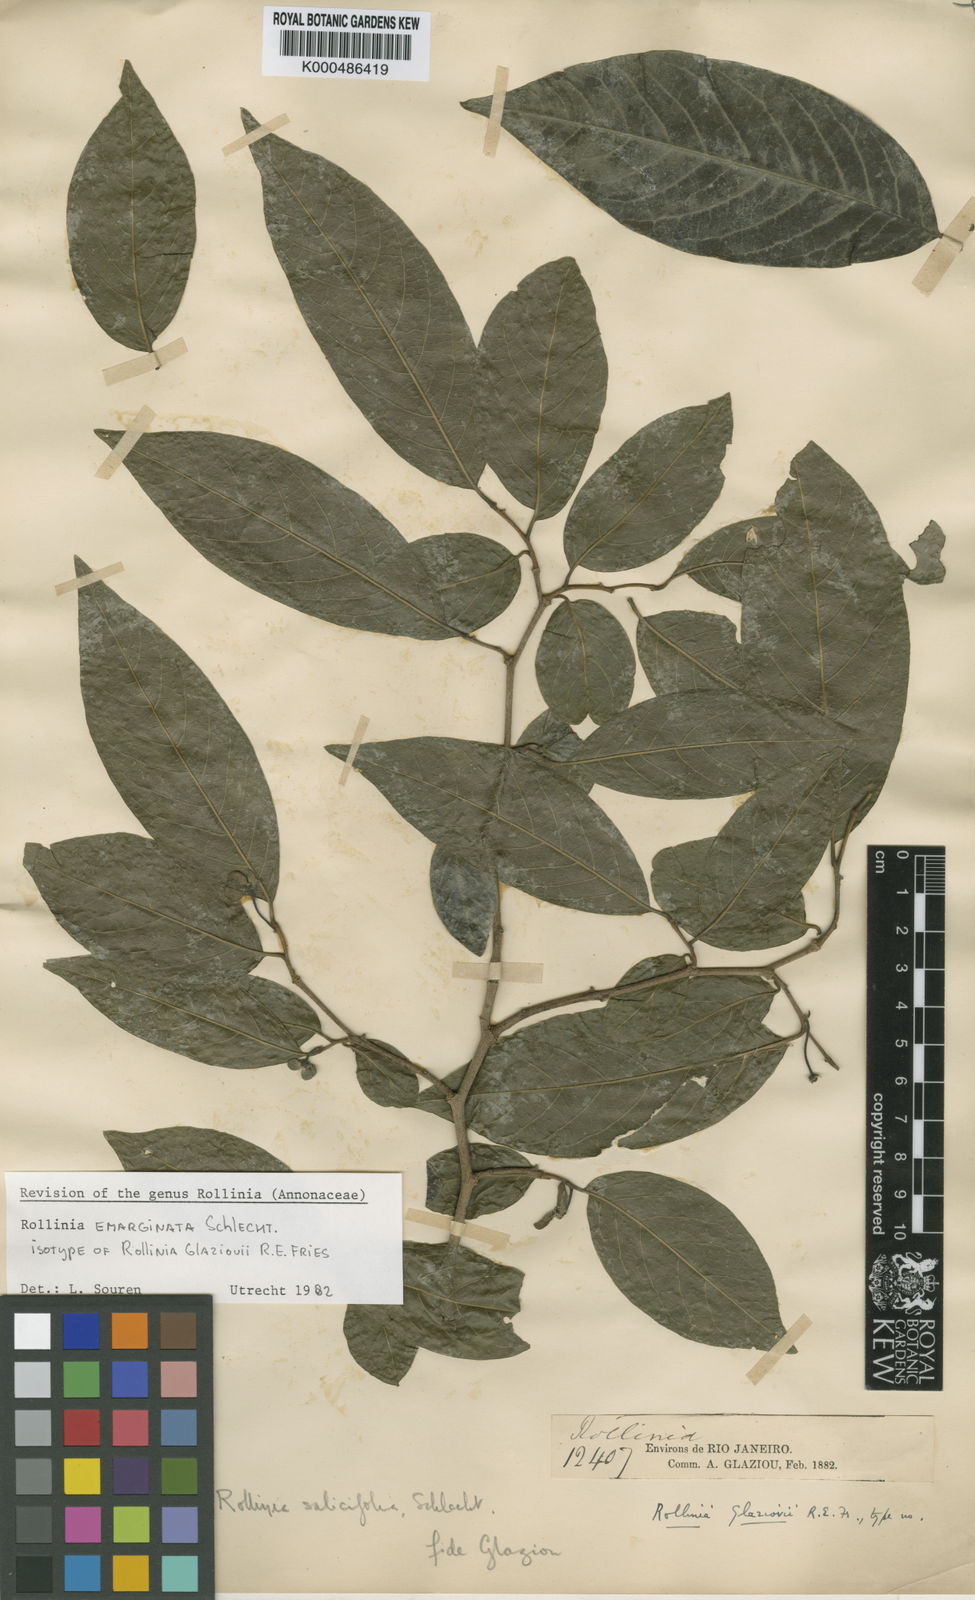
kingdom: Plantae
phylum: Tracheophyta
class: Magnoliopsida
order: Magnoliales
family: Annonaceae
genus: Annona
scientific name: Annona emarginata
